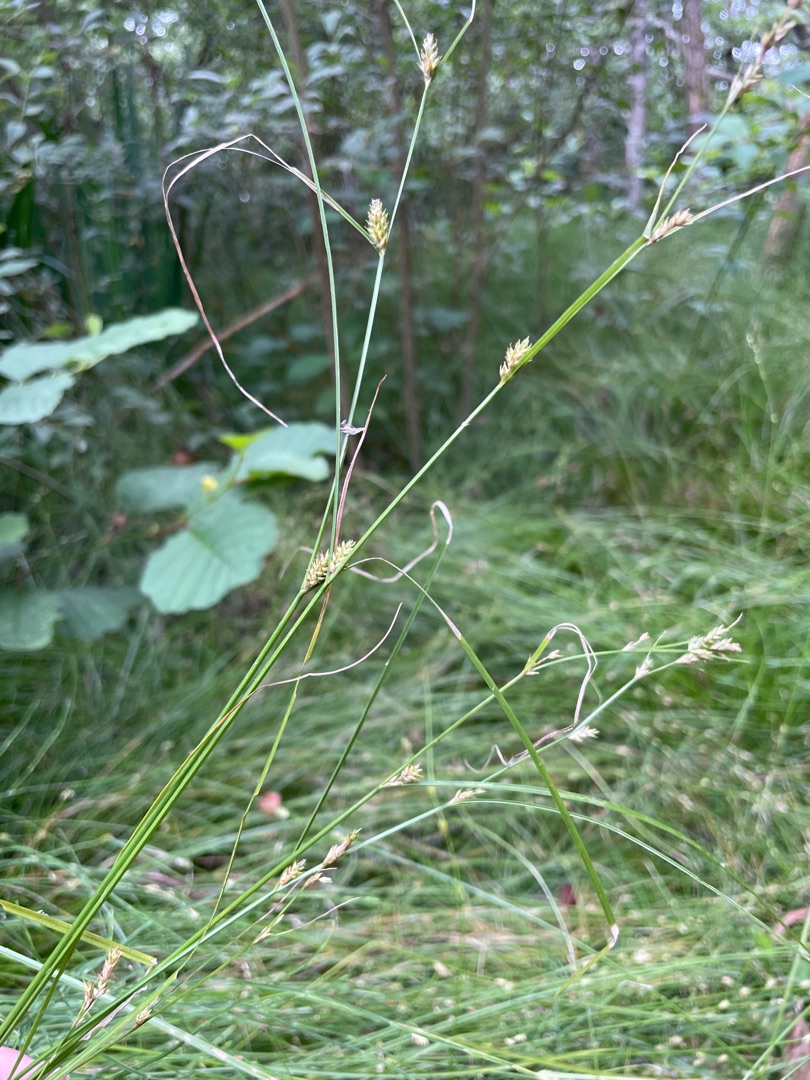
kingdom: Plantae
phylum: Tracheophyta
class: Liliopsida
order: Poales
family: Cyperaceae
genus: Carex
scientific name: Carex remota
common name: Akselblomstret star
